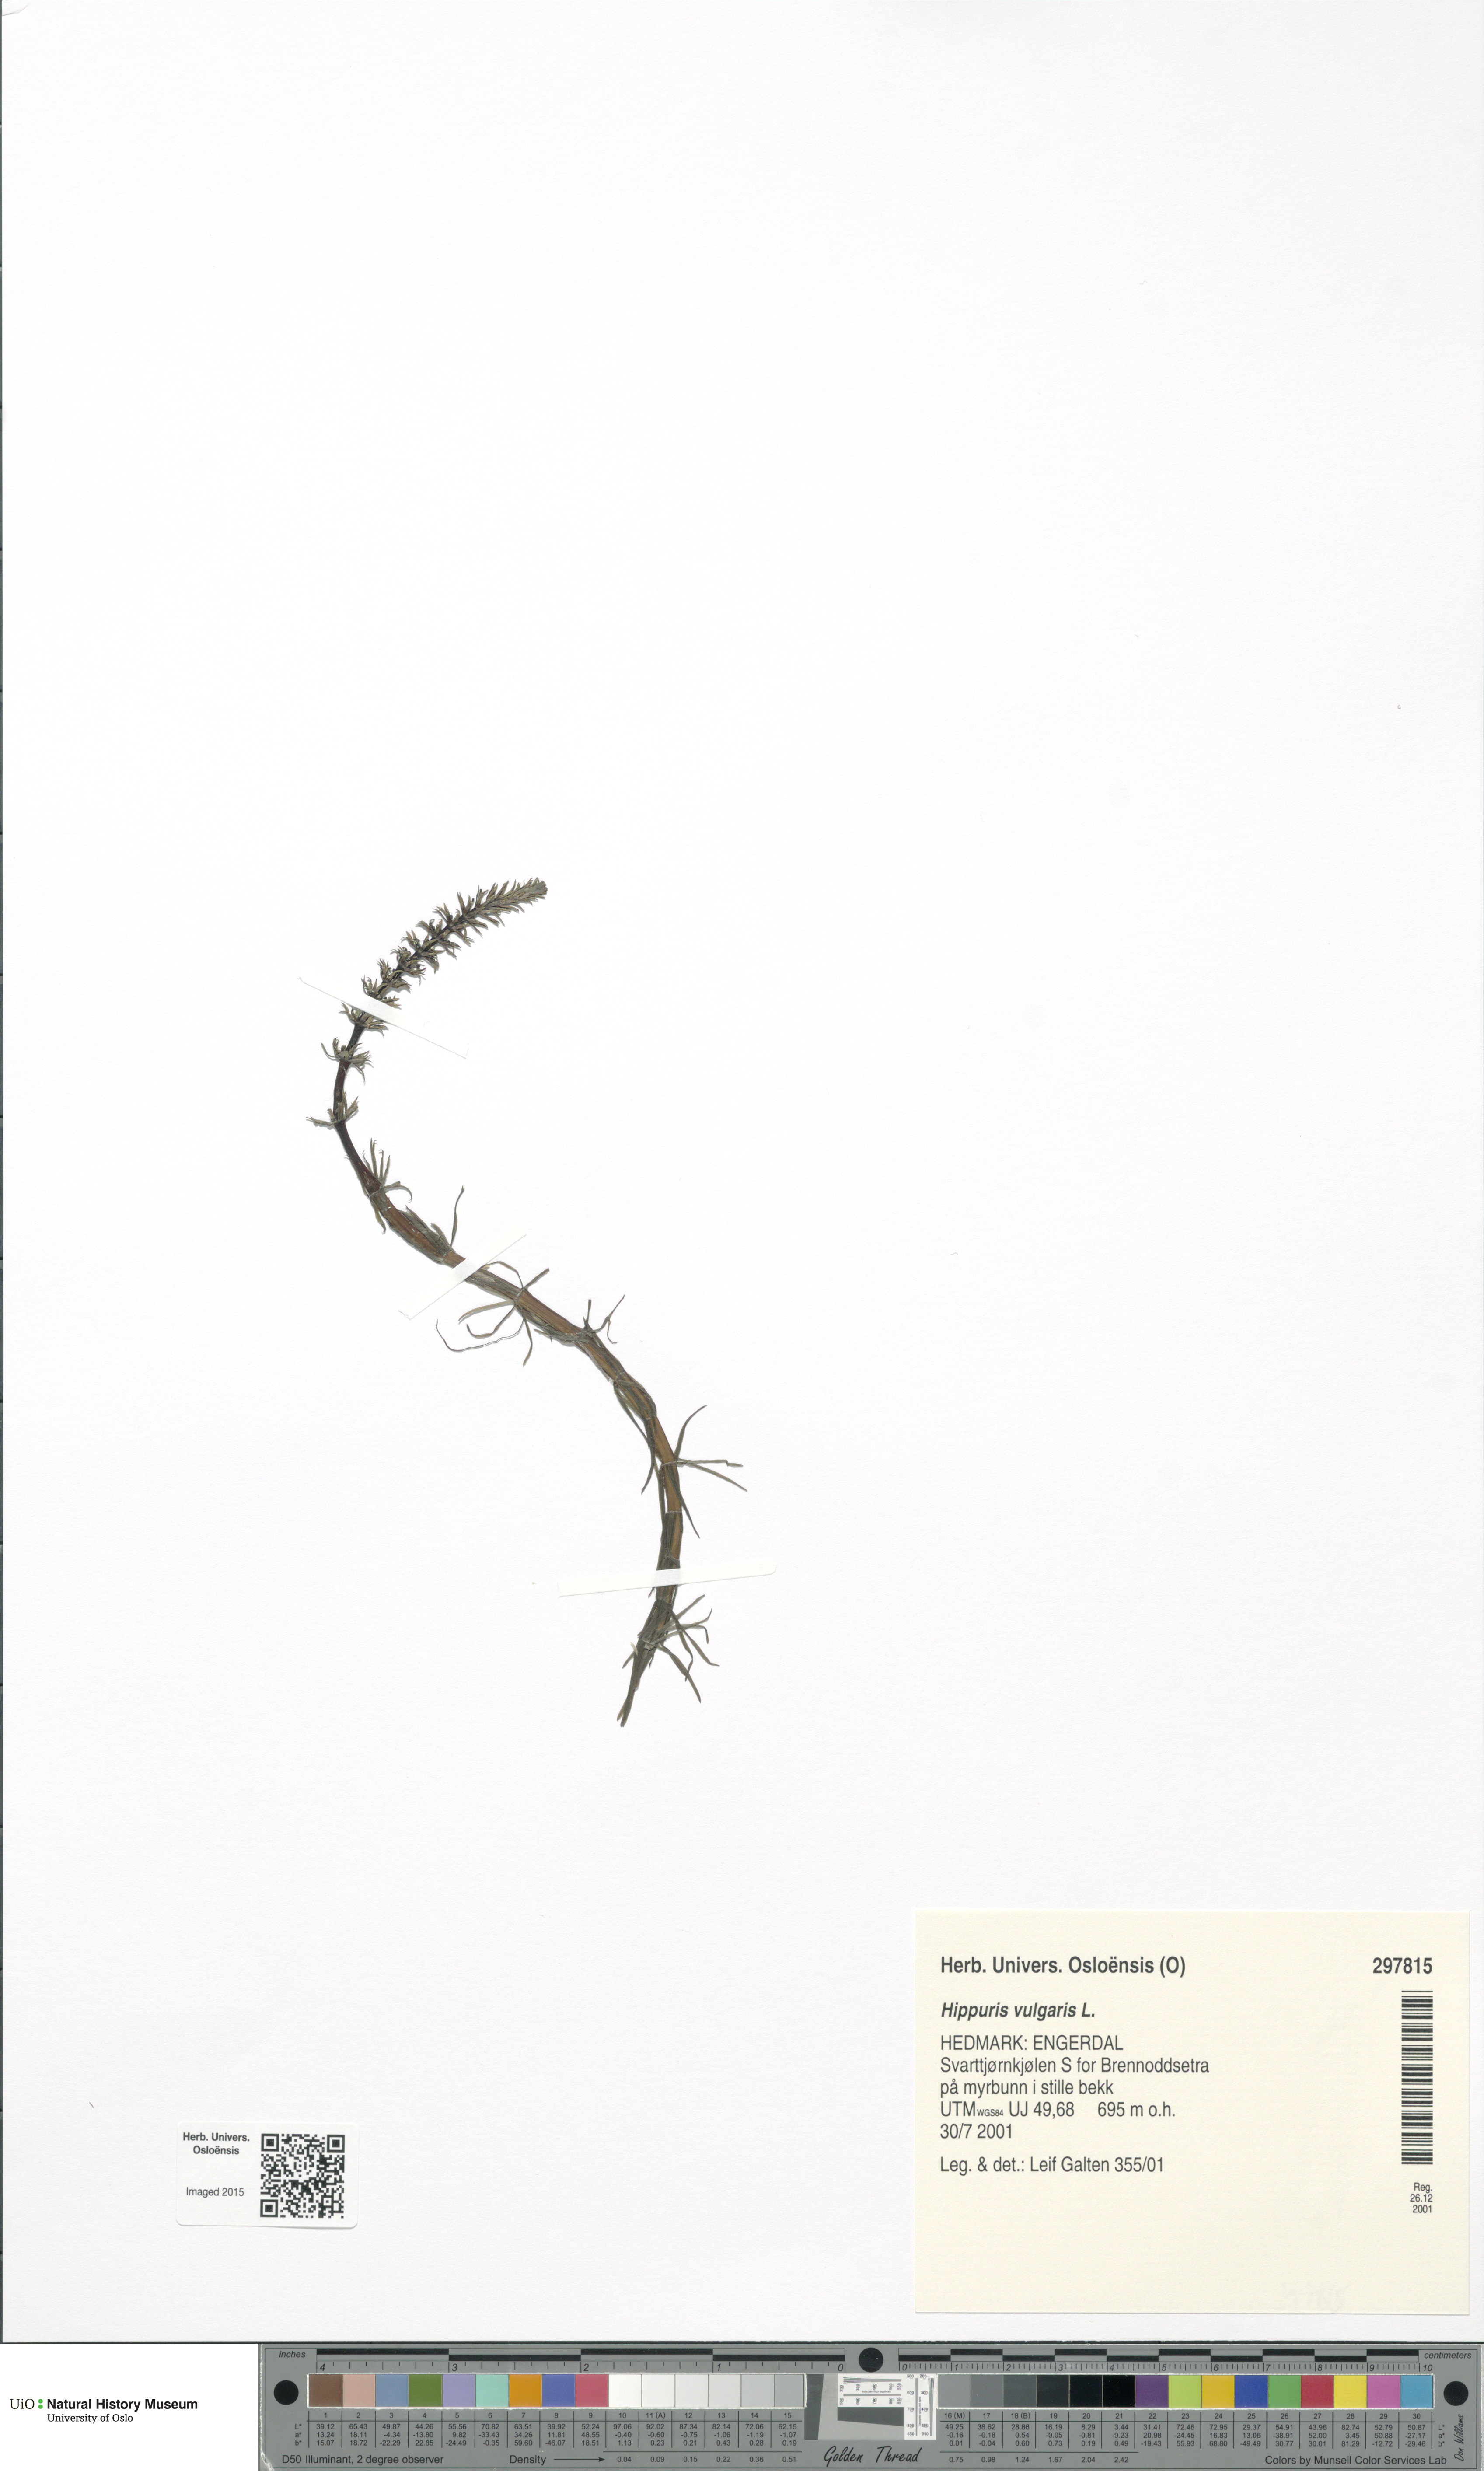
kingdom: Plantae
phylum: Tracheophyta
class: Magnoliopsida
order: Lamiales
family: Plantaginaceae
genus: Hippuris
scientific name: Hippuris vulgaris
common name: Mare's-tail
